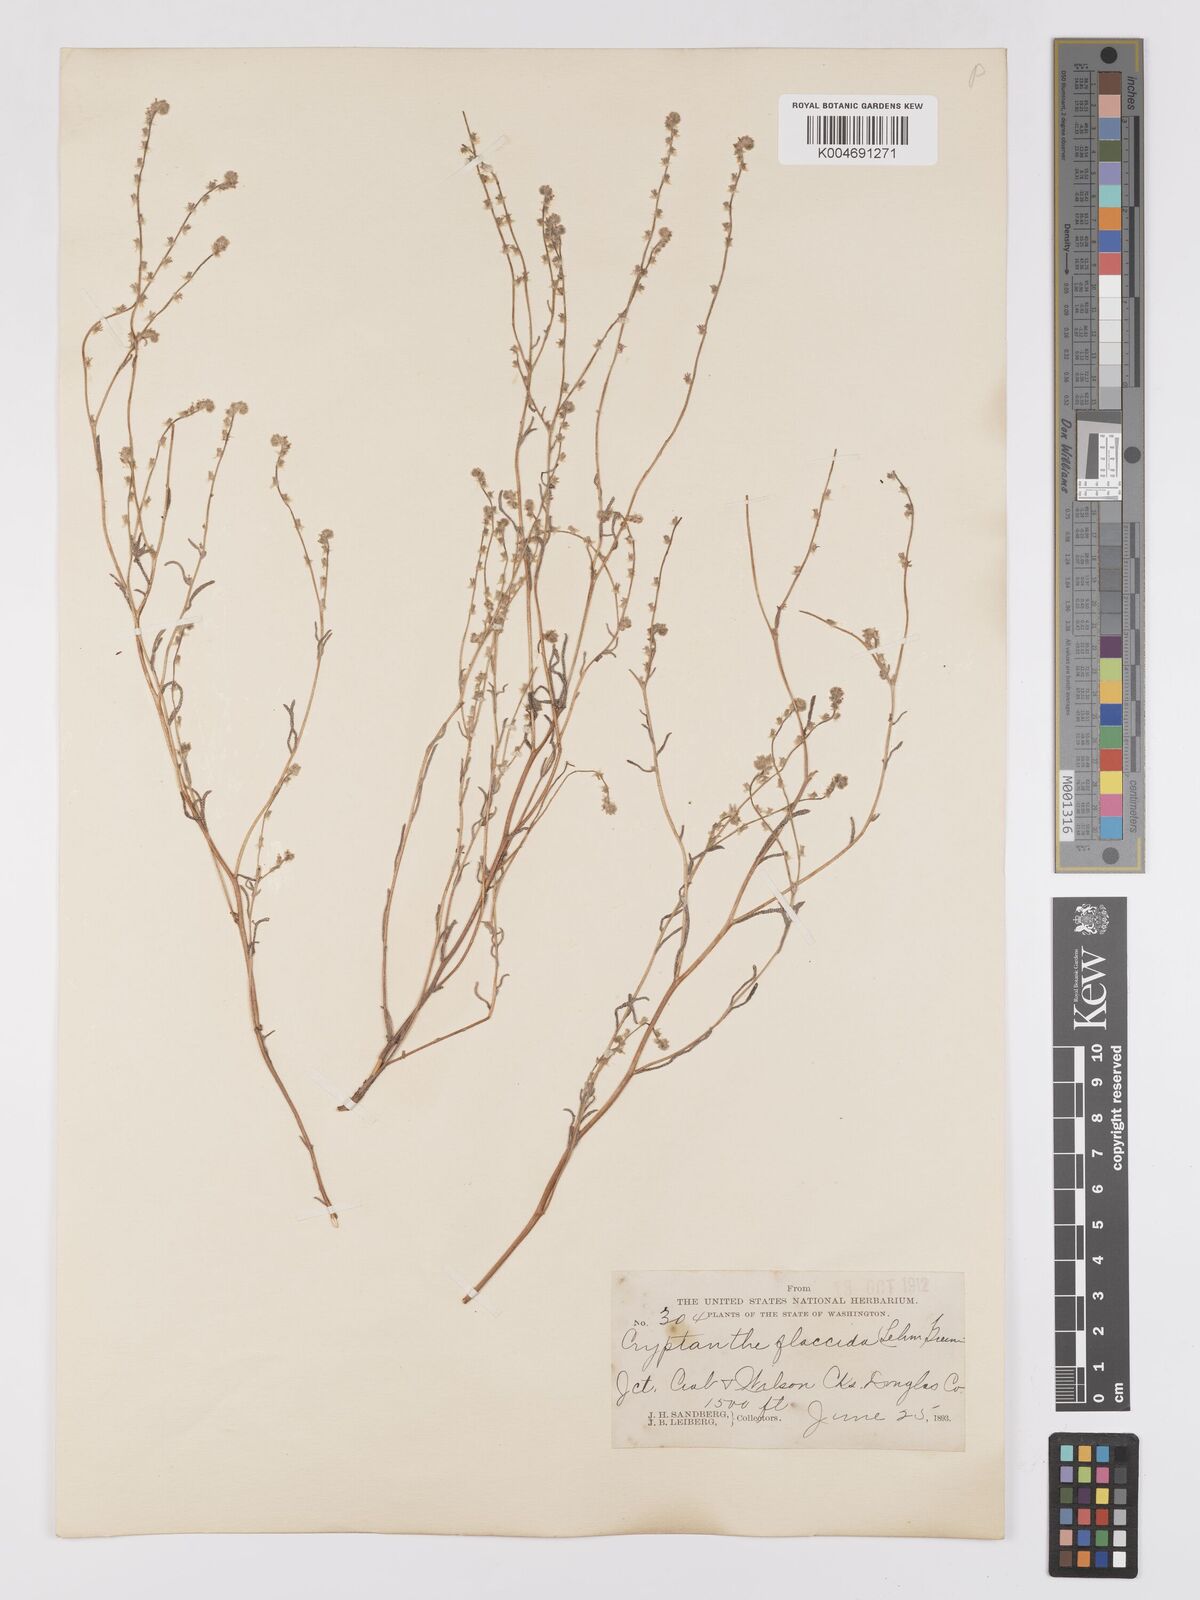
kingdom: Plantae
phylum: Tracheophyta
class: Magnoliopsida
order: Boraginales
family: Boraginaceae
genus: Cryptantha
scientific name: Cryptantha flaccida
